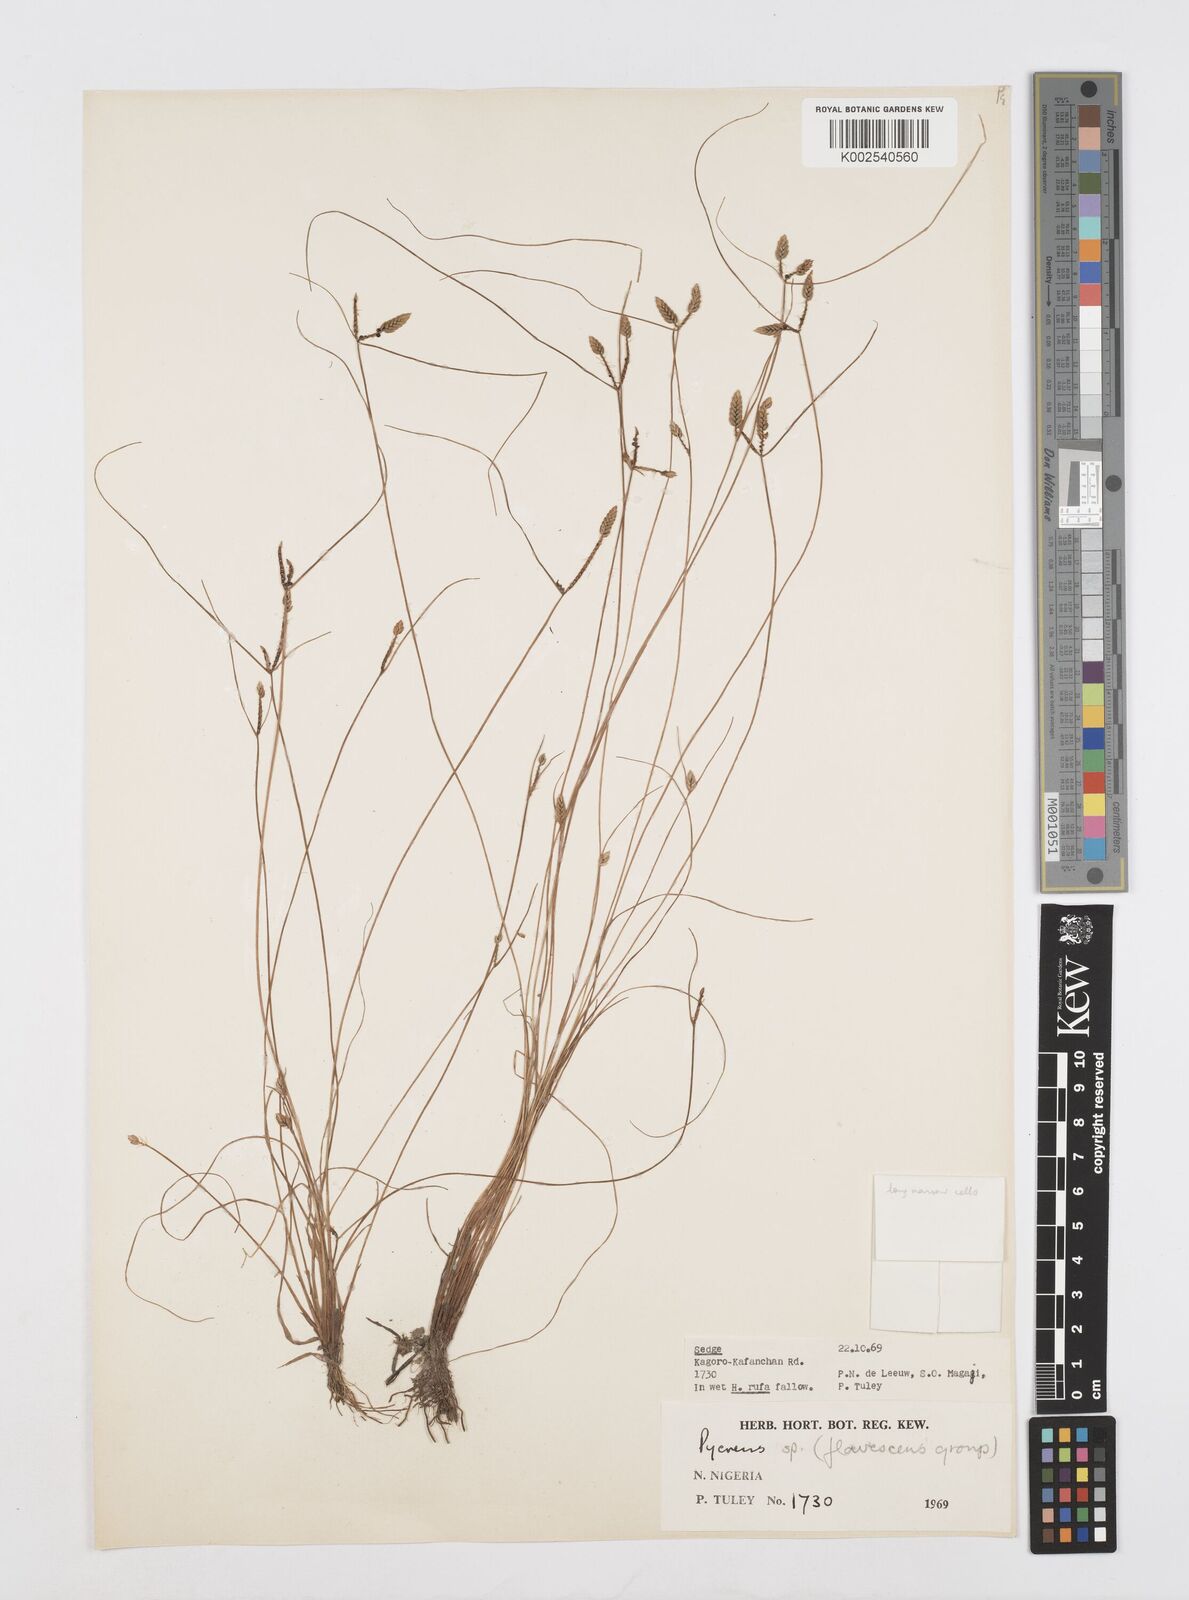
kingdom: Plantae
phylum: Tracheophyta
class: Liliopsida
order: Poales
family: Cyperaceae
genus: Cyperus
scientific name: Cyperus
